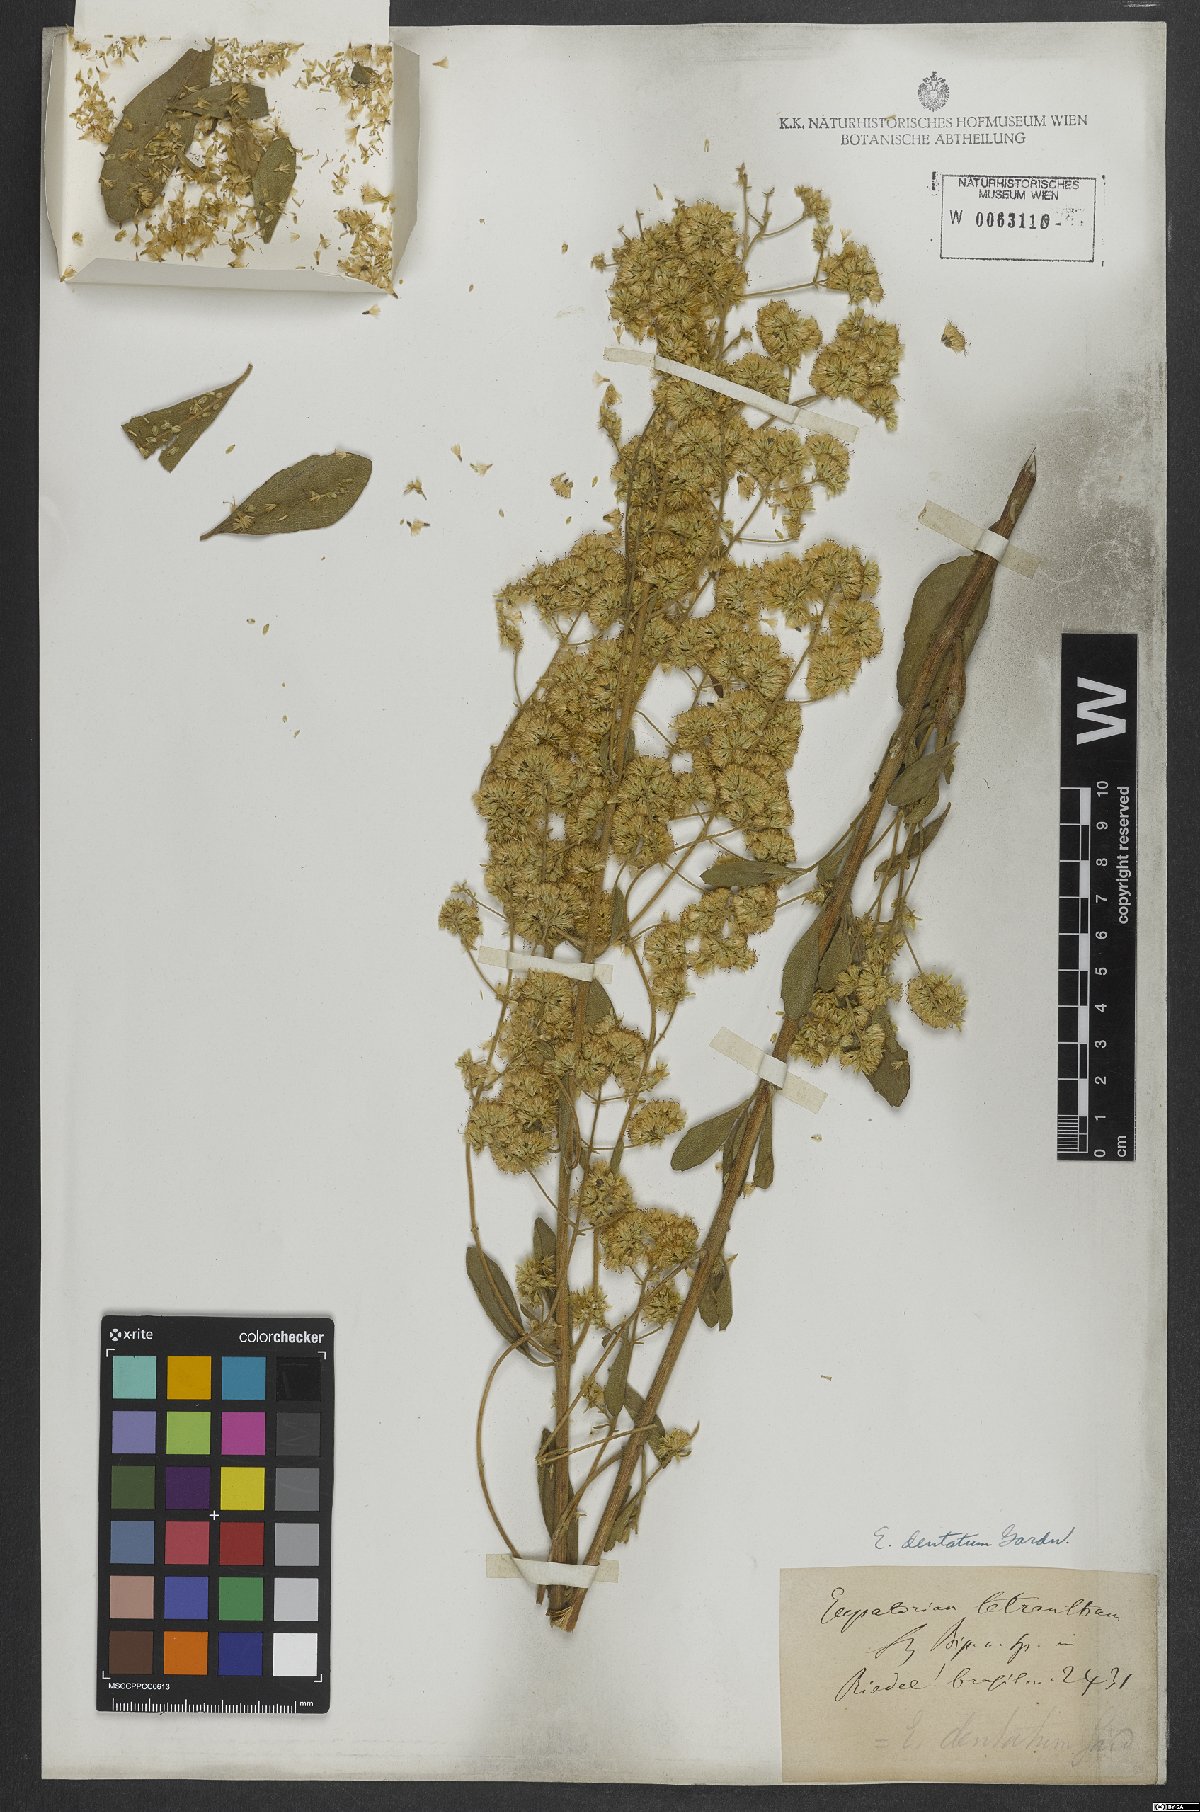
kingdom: Plantae
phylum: Tracheophyta
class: Magnoliopsida
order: Asterales
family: Asteraceae
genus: Stomatanthes
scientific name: Stomatanthes dentatus
